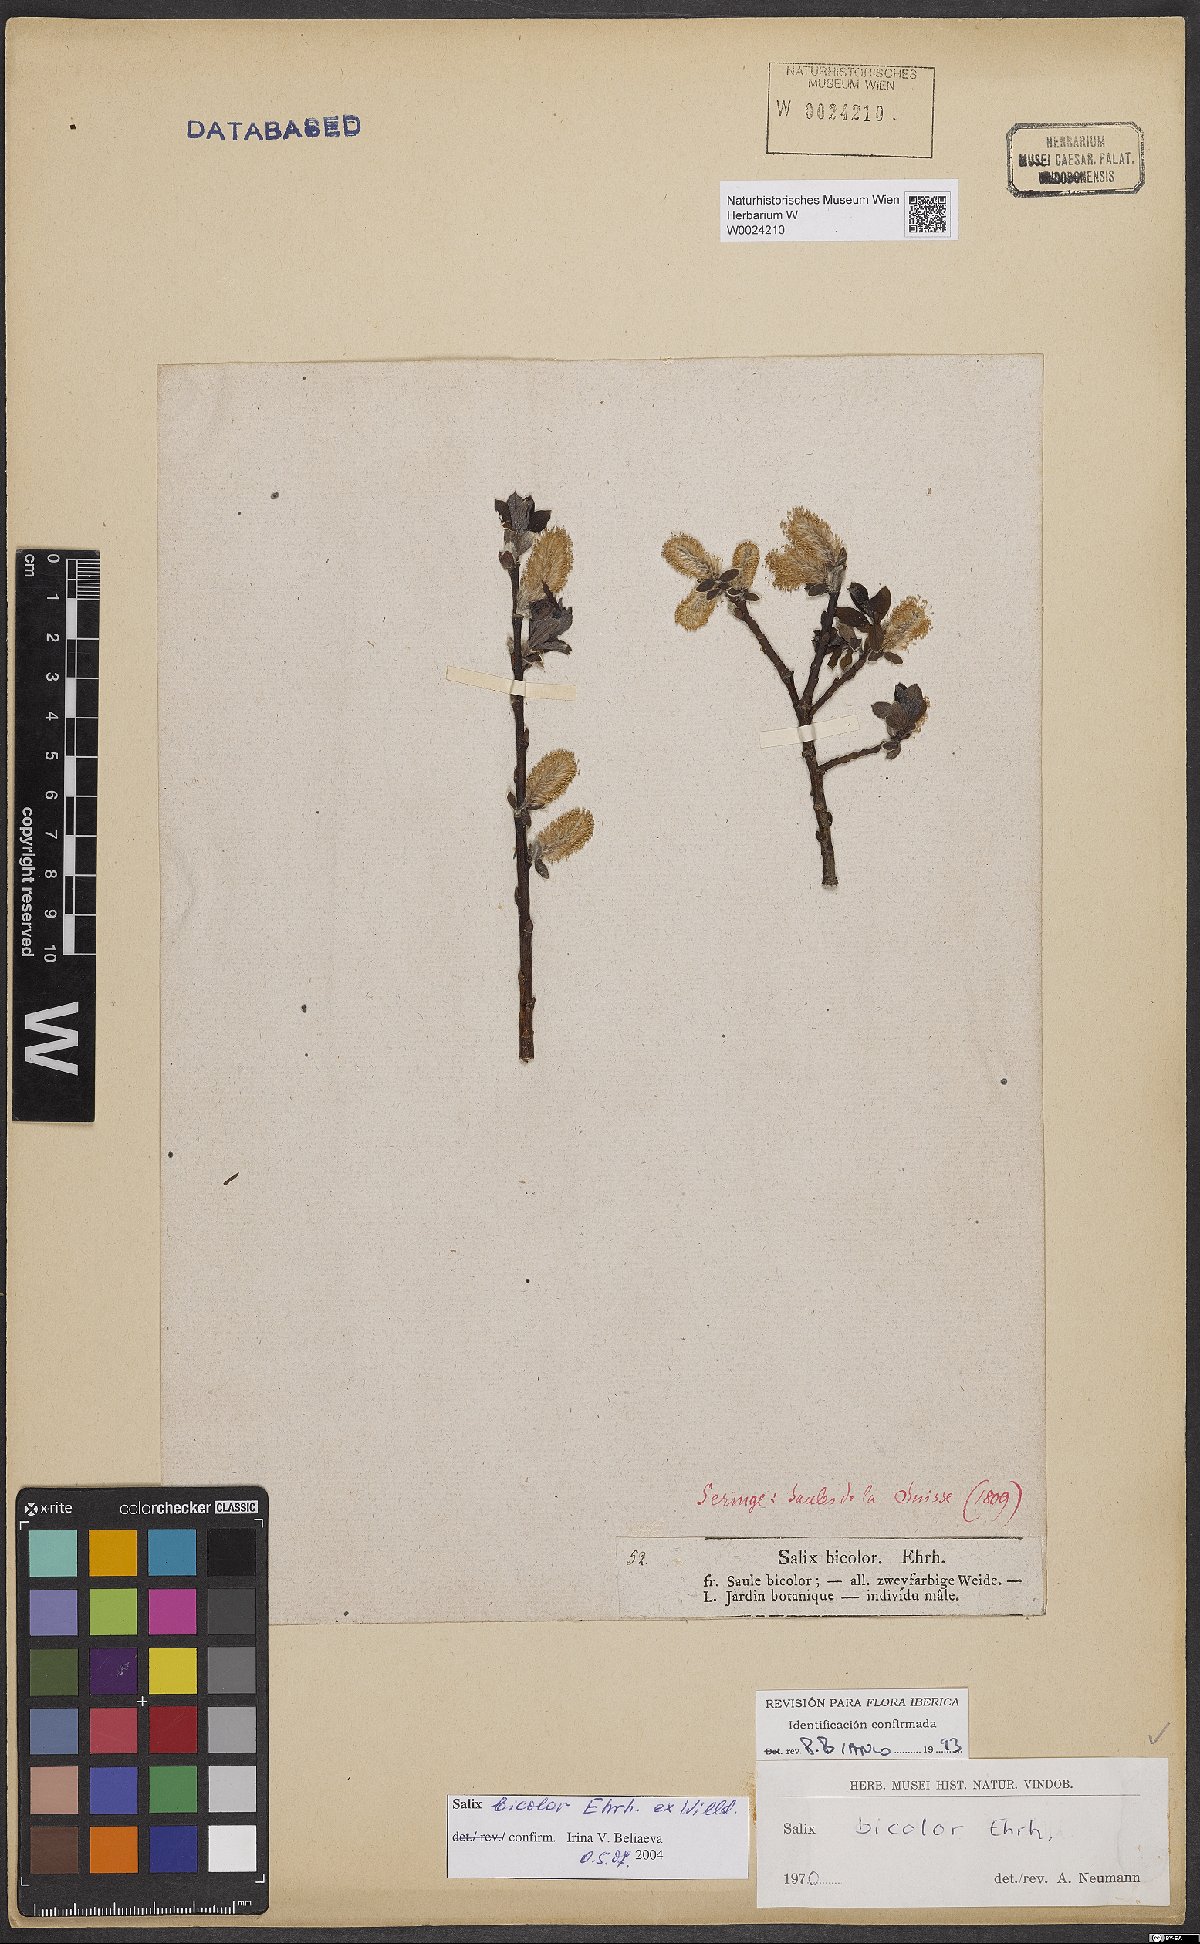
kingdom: Plantae
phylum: Tracheophyta
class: Magnoliopsida
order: Malpighiales
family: Salicaceae
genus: Salix
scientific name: Salix bicolor
